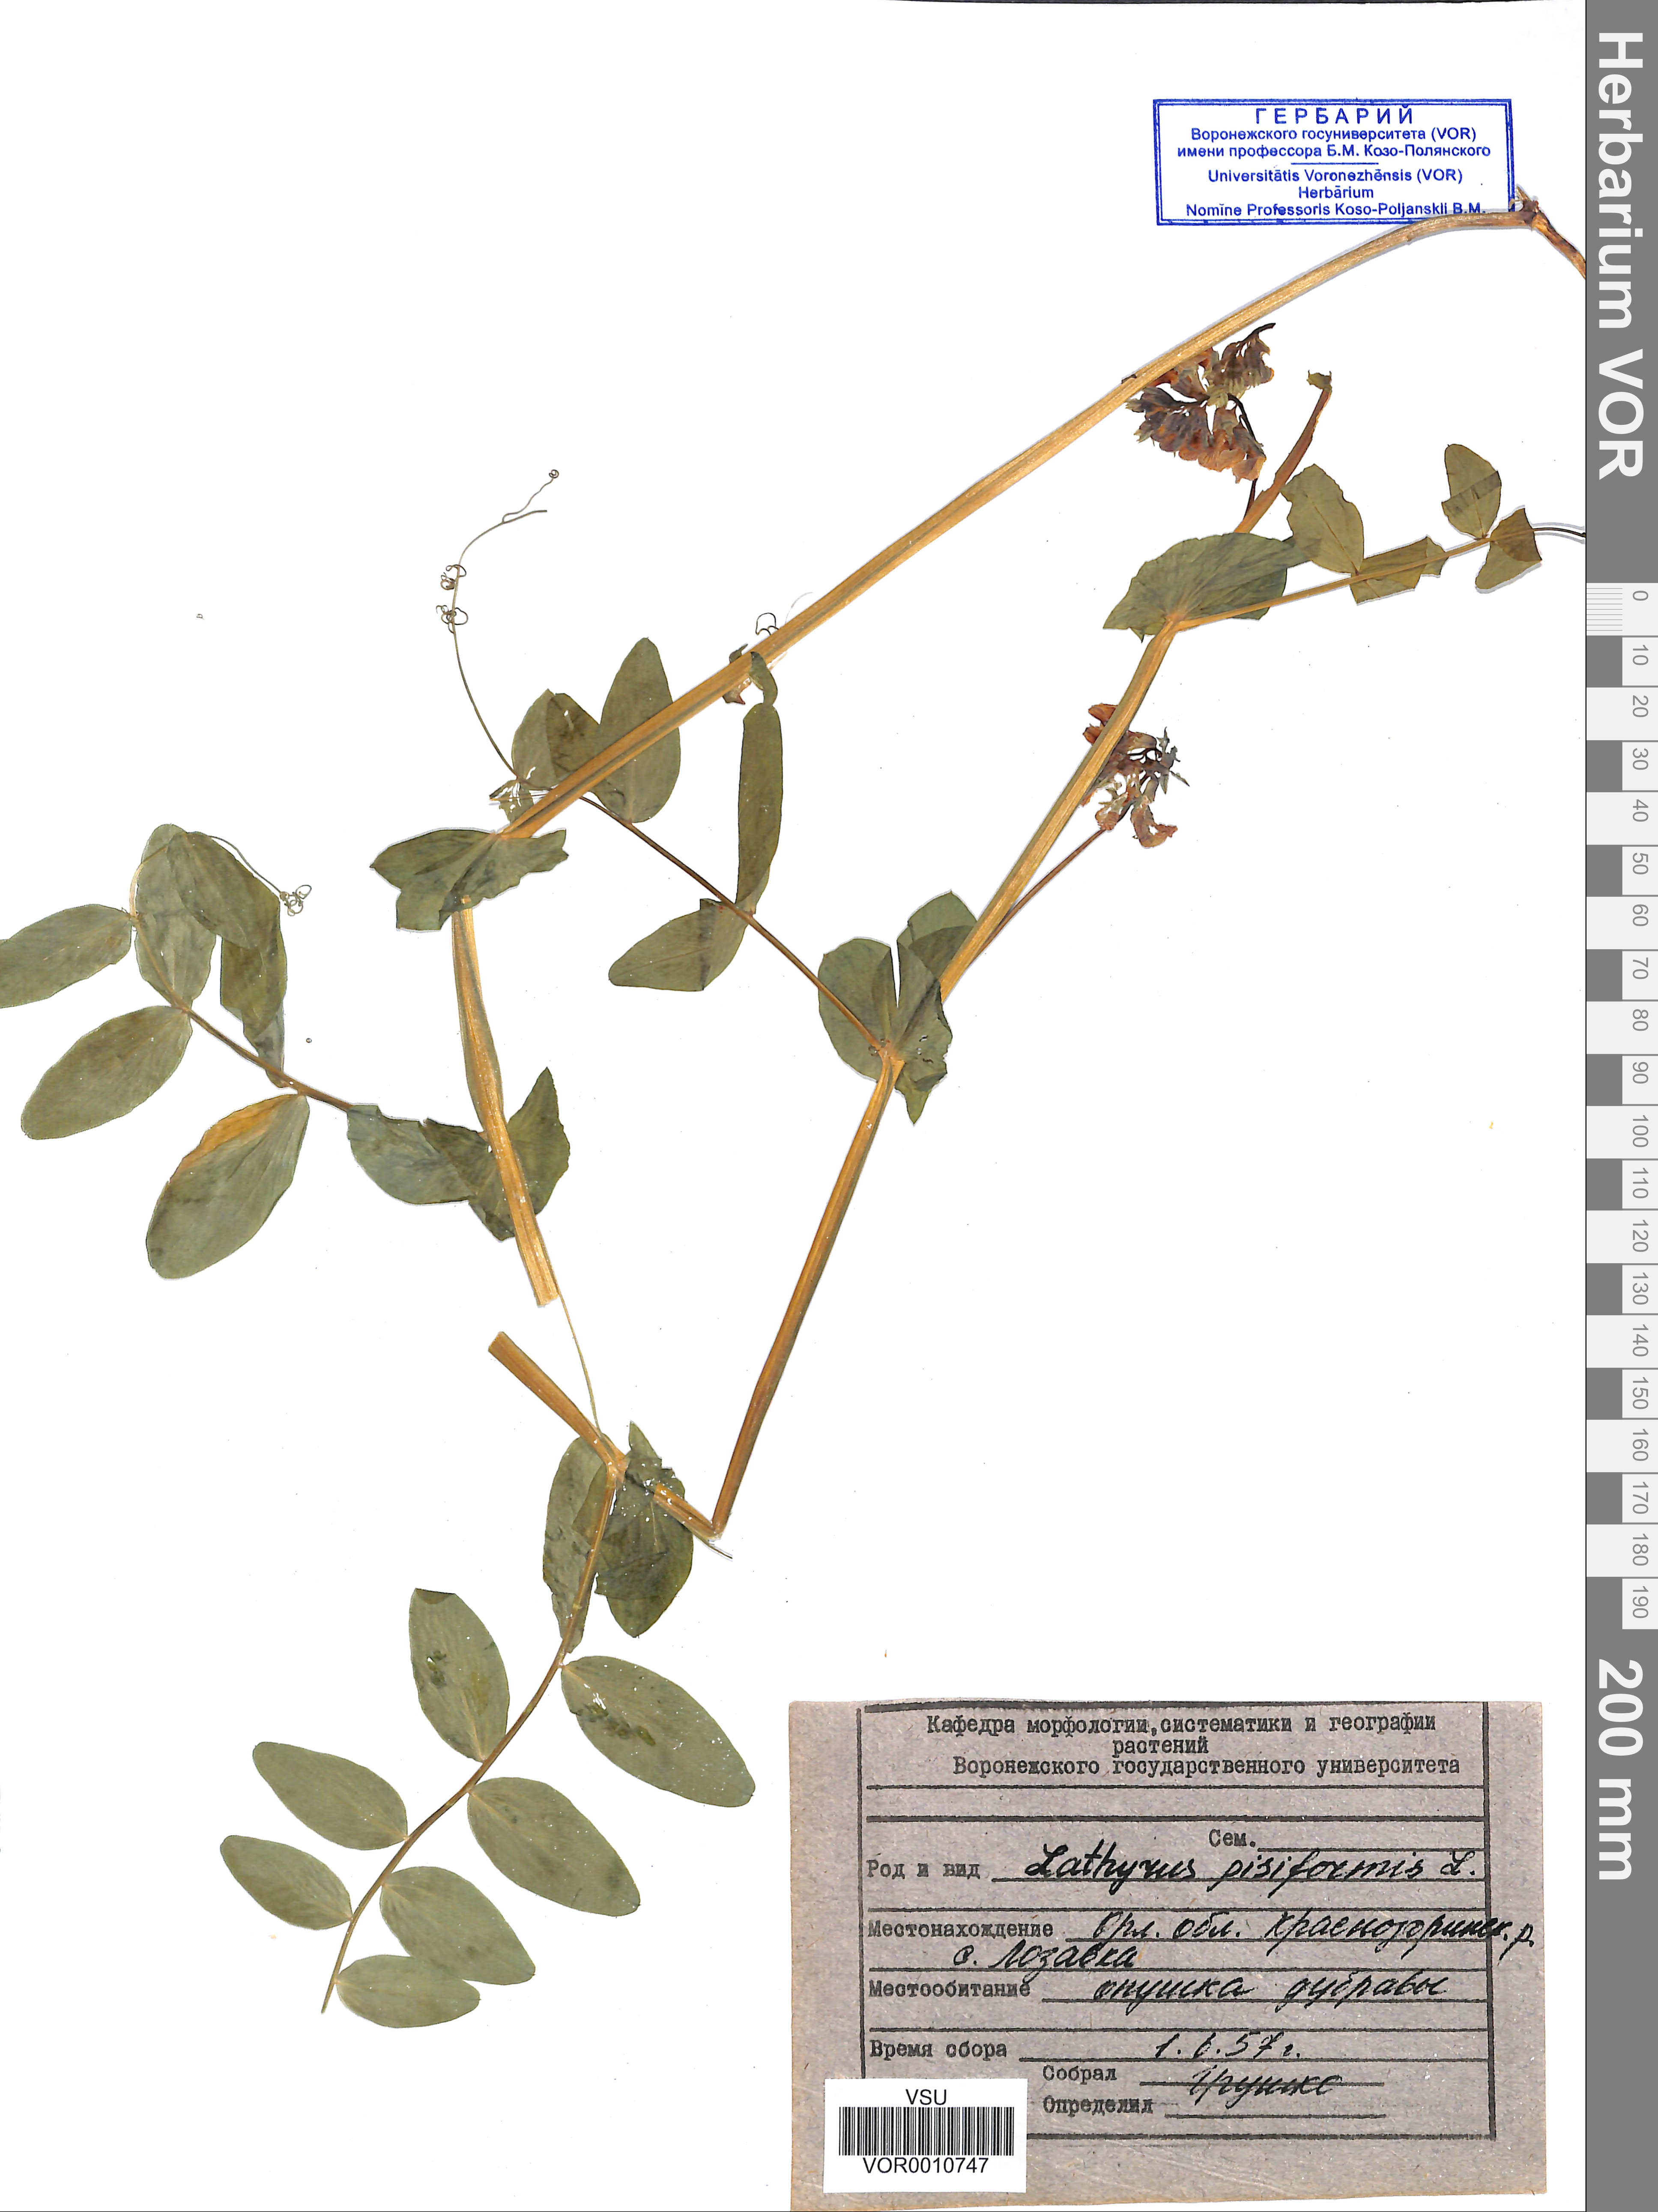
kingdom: Plantae
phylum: Tracheophyta
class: Magnoliopsida
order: Fabales
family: Fabaceae
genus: Lathyrus
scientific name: Lathyrus pisiformis
